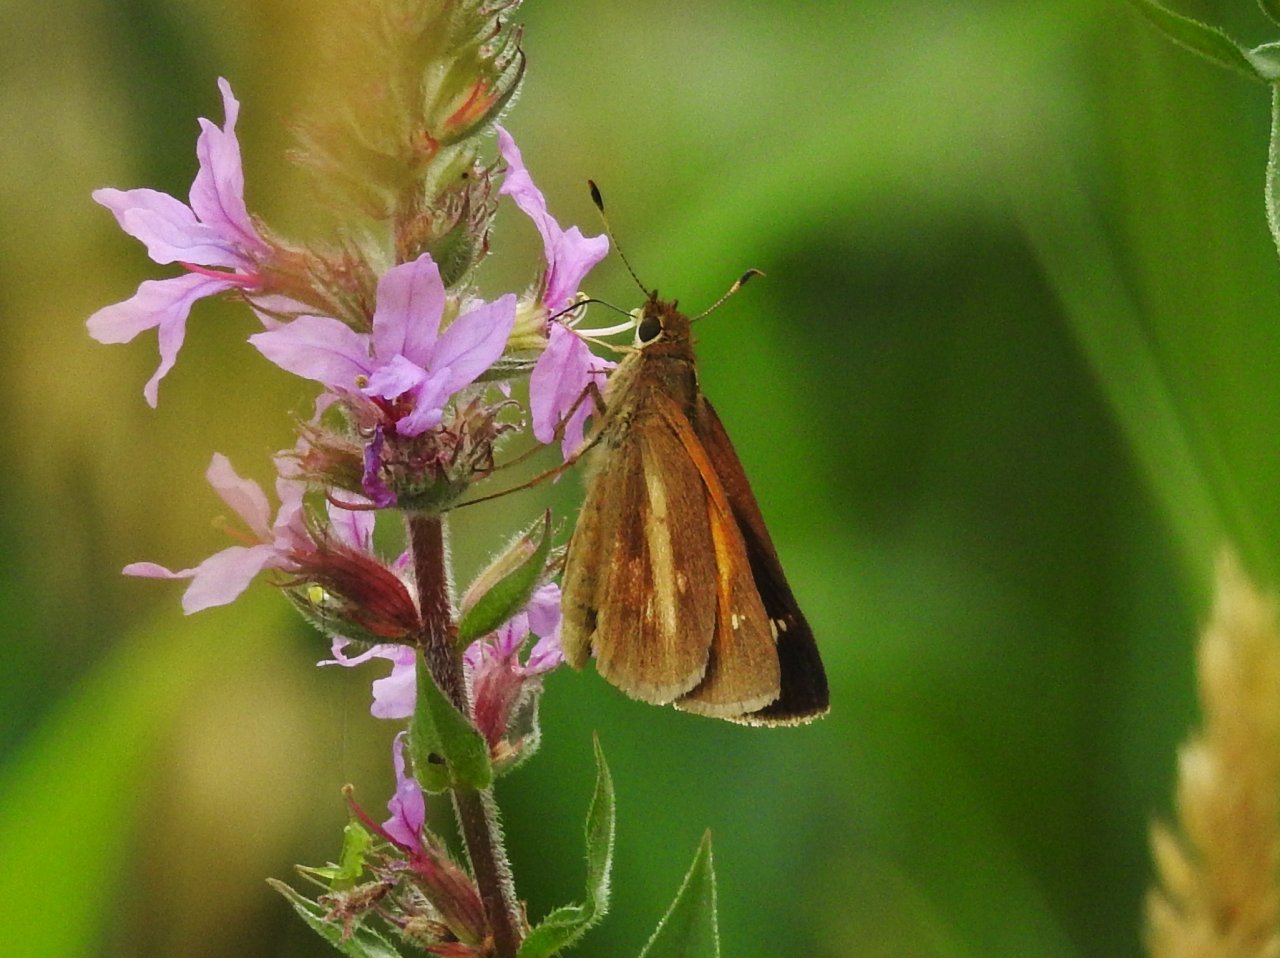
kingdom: Animalia
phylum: Arthropoda
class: Insecta
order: Lepidoptera
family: Hesperiidae
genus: Poanes
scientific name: Poanes viator
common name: Broad-winged Skipper
